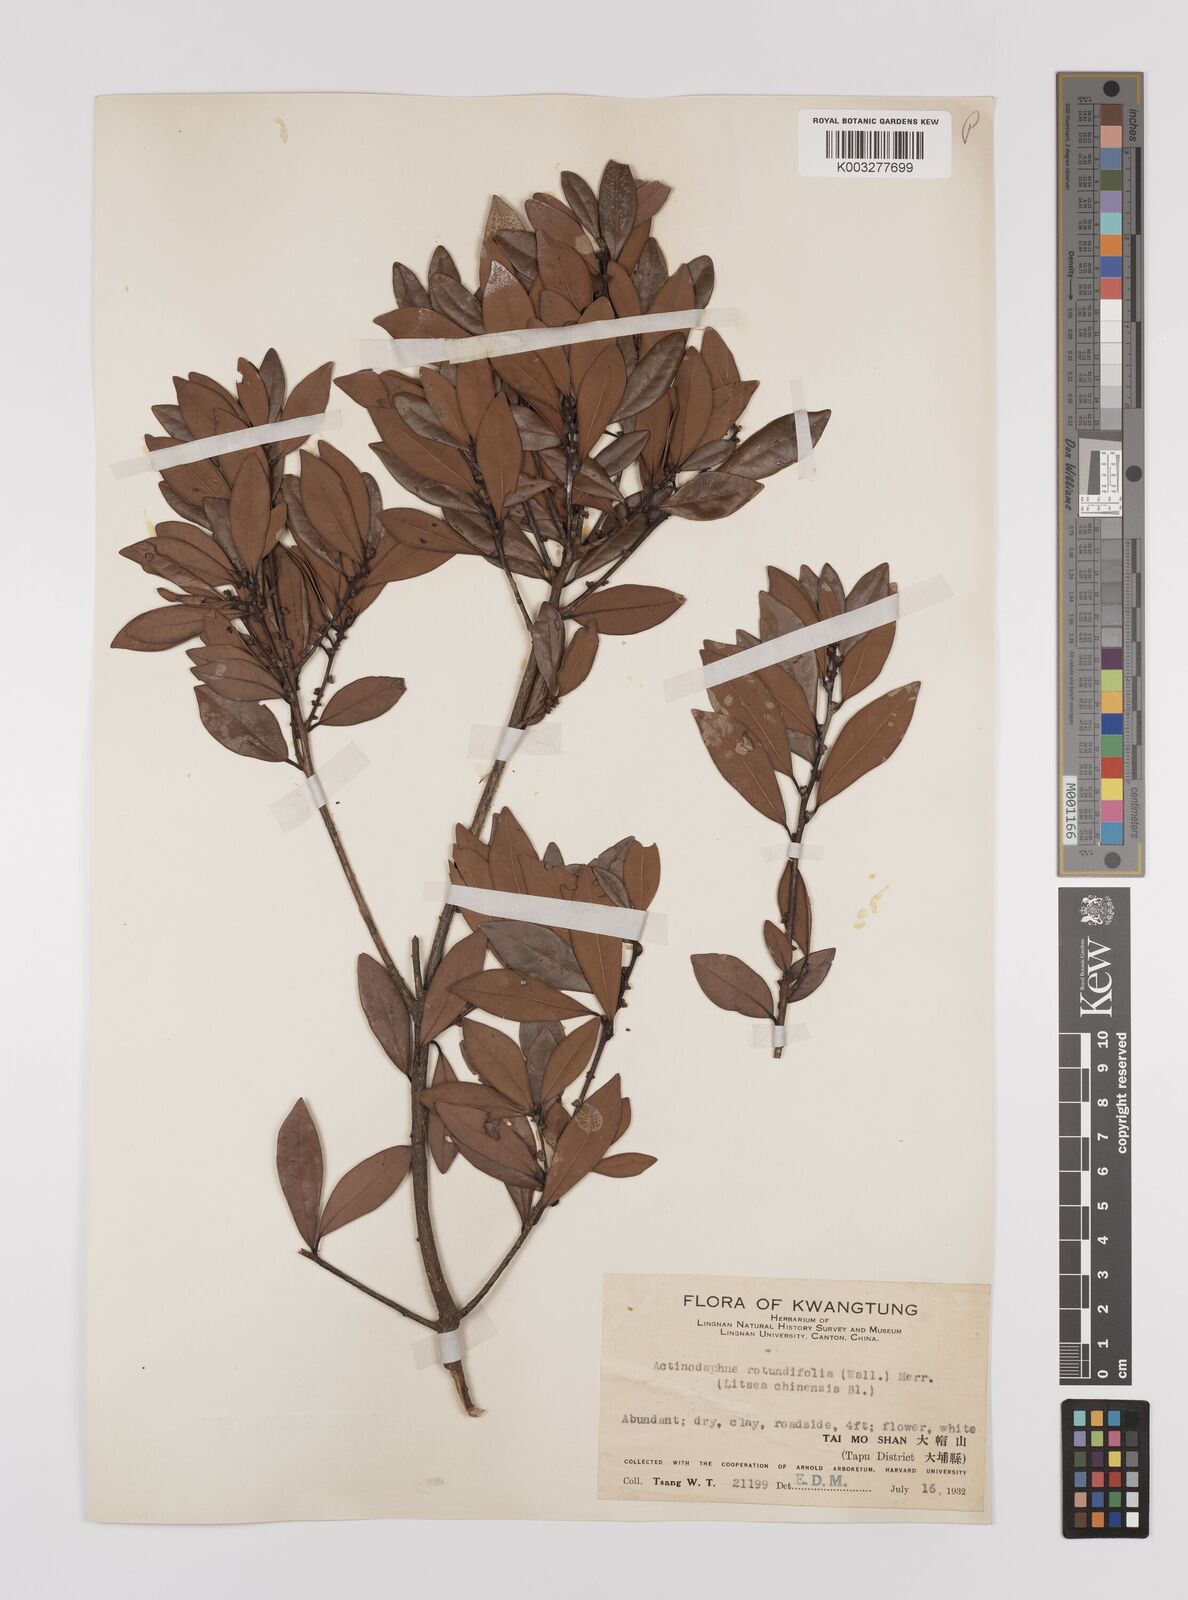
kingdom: Plantae
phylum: Tracheophyta
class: Magnoliopsida
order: Laurales
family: Lauraceae
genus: Litsea
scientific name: Litsea rotundifolia
